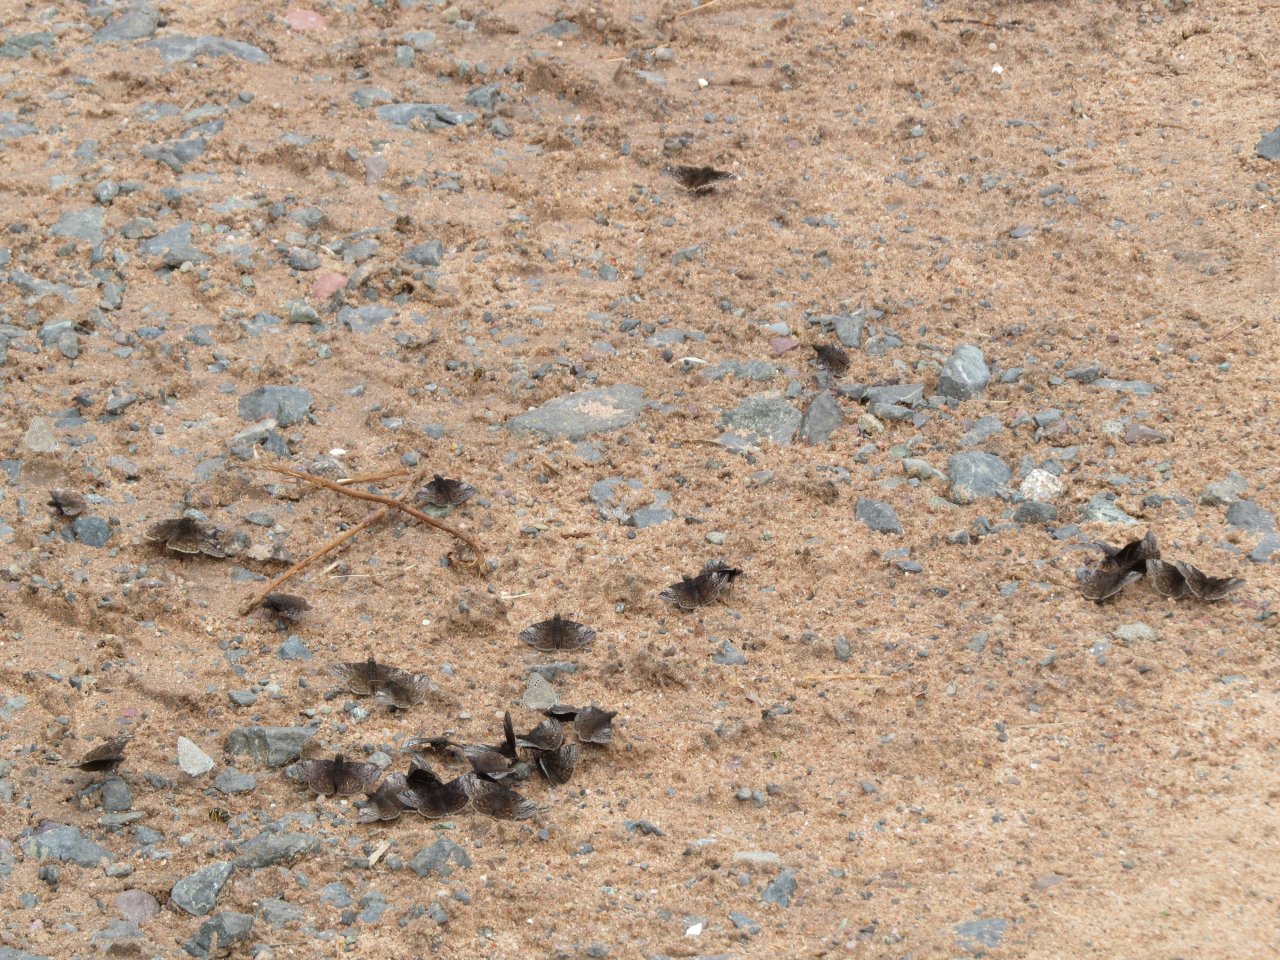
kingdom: Animalia
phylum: Arthropoda
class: Insecta
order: Lepidoptera
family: Hesperiidae
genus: Erynnis
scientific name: Erynnis icelus
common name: Dreamy Duskywing
